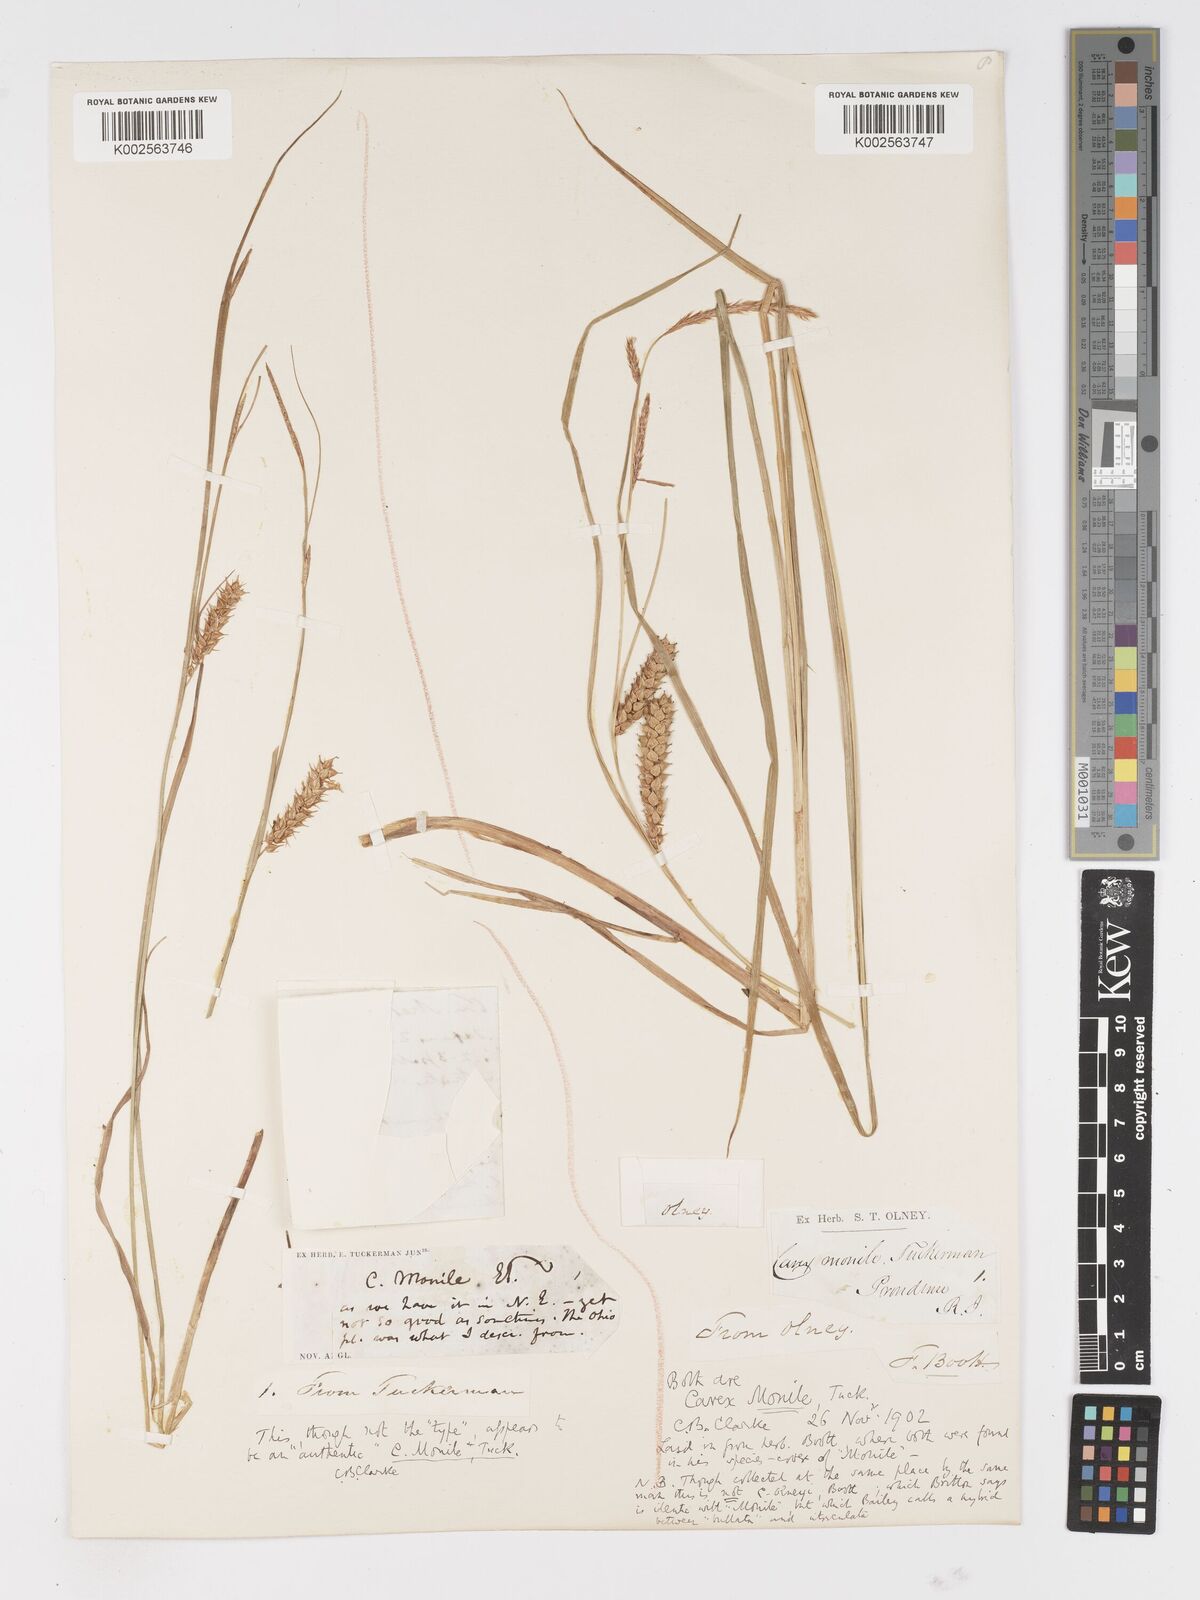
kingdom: Plantae
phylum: Tracheophyta
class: Liliopsida
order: Poales
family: Cyperaceae
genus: Carex
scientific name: Carex vesicaria
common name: Bladder-sedge
